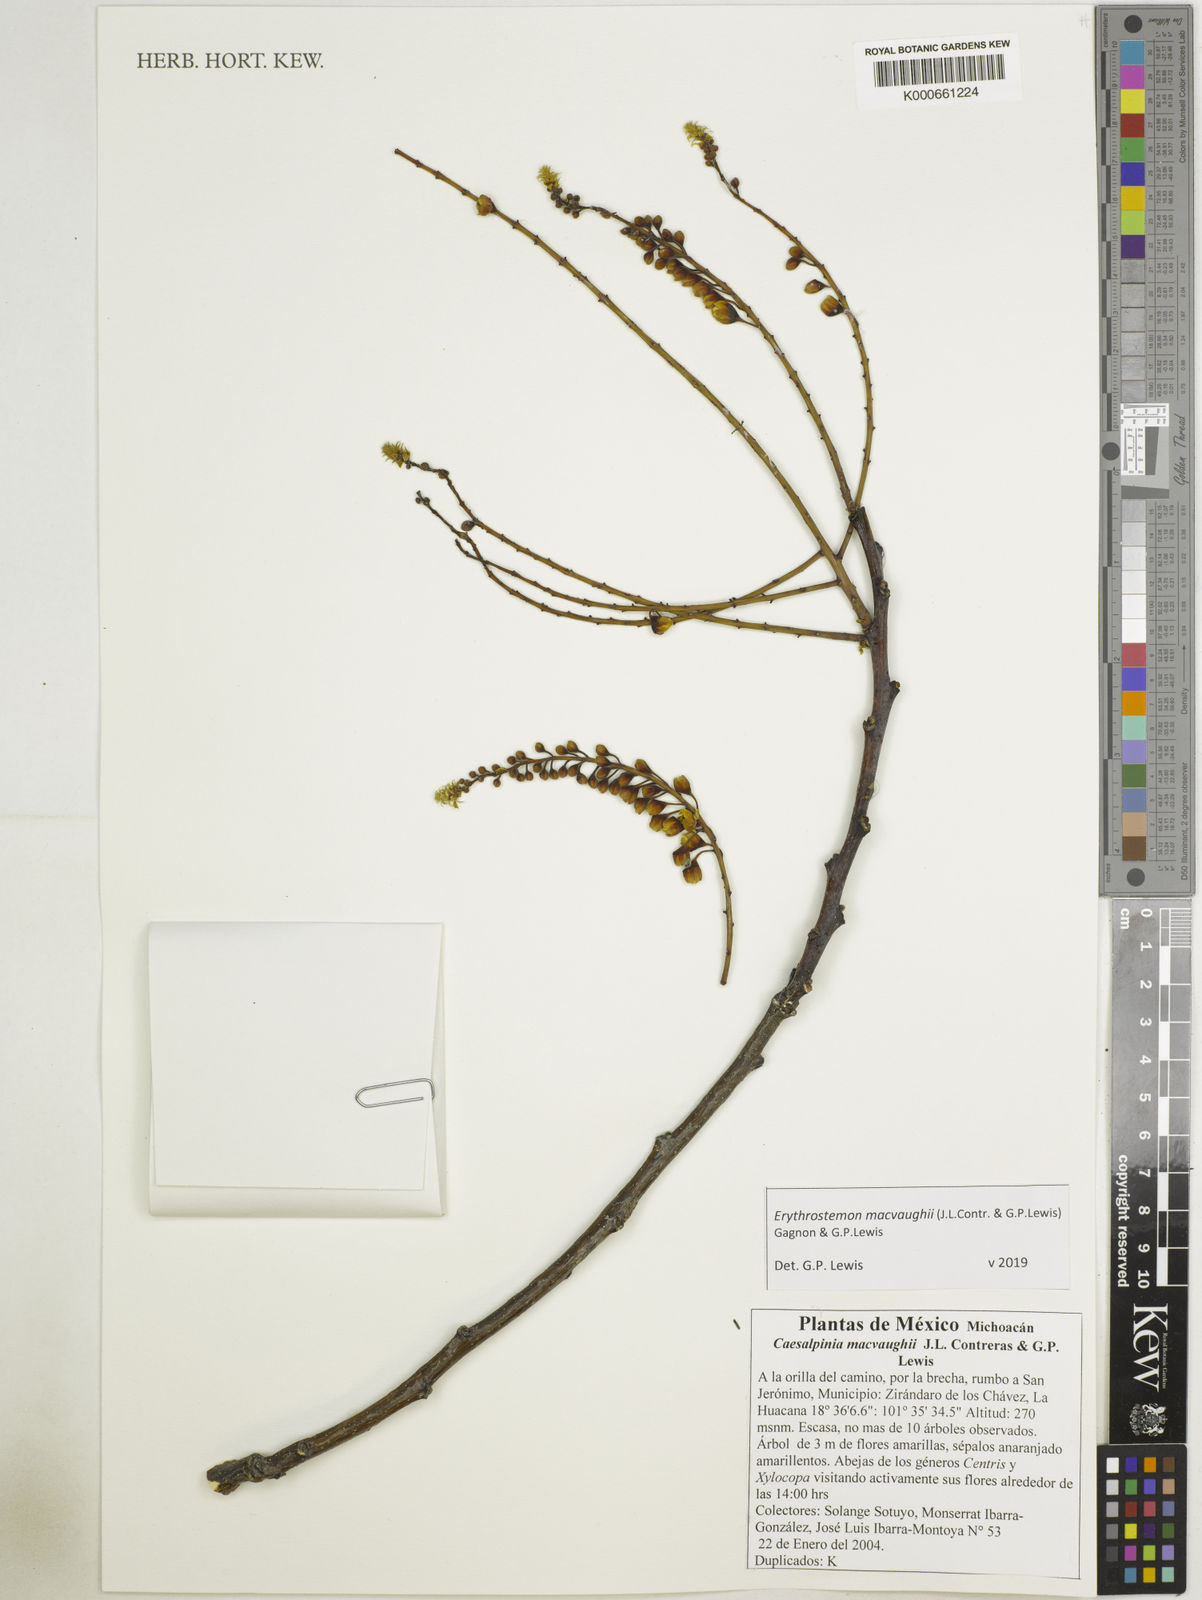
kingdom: Plantae
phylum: Tracheophyta
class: Magnoliopsida
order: Fabales
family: Fabaceae
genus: Erythrostemon
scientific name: Erythrostemon macvaughii
